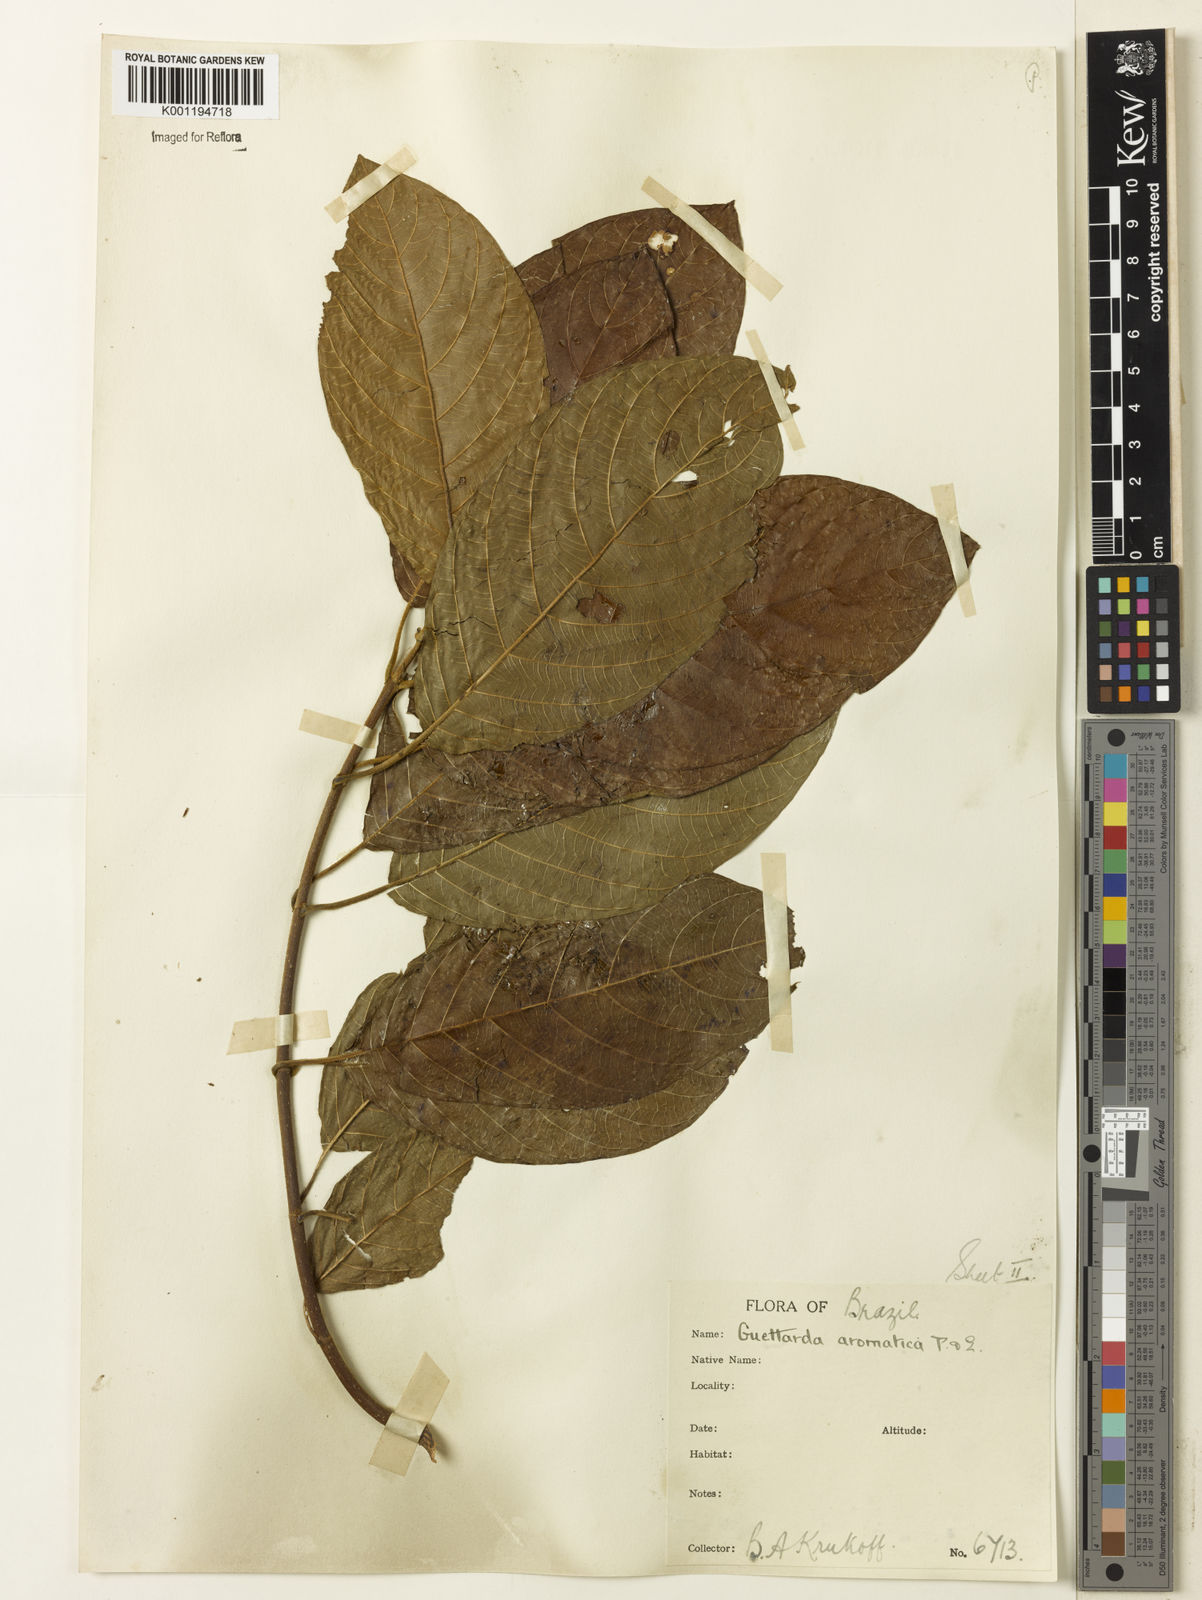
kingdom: Plantae
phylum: Tracheophyta
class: Magnoliopsida
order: Gentianales
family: Rubiaceae
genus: Guettarda
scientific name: Guettarda aromatica
